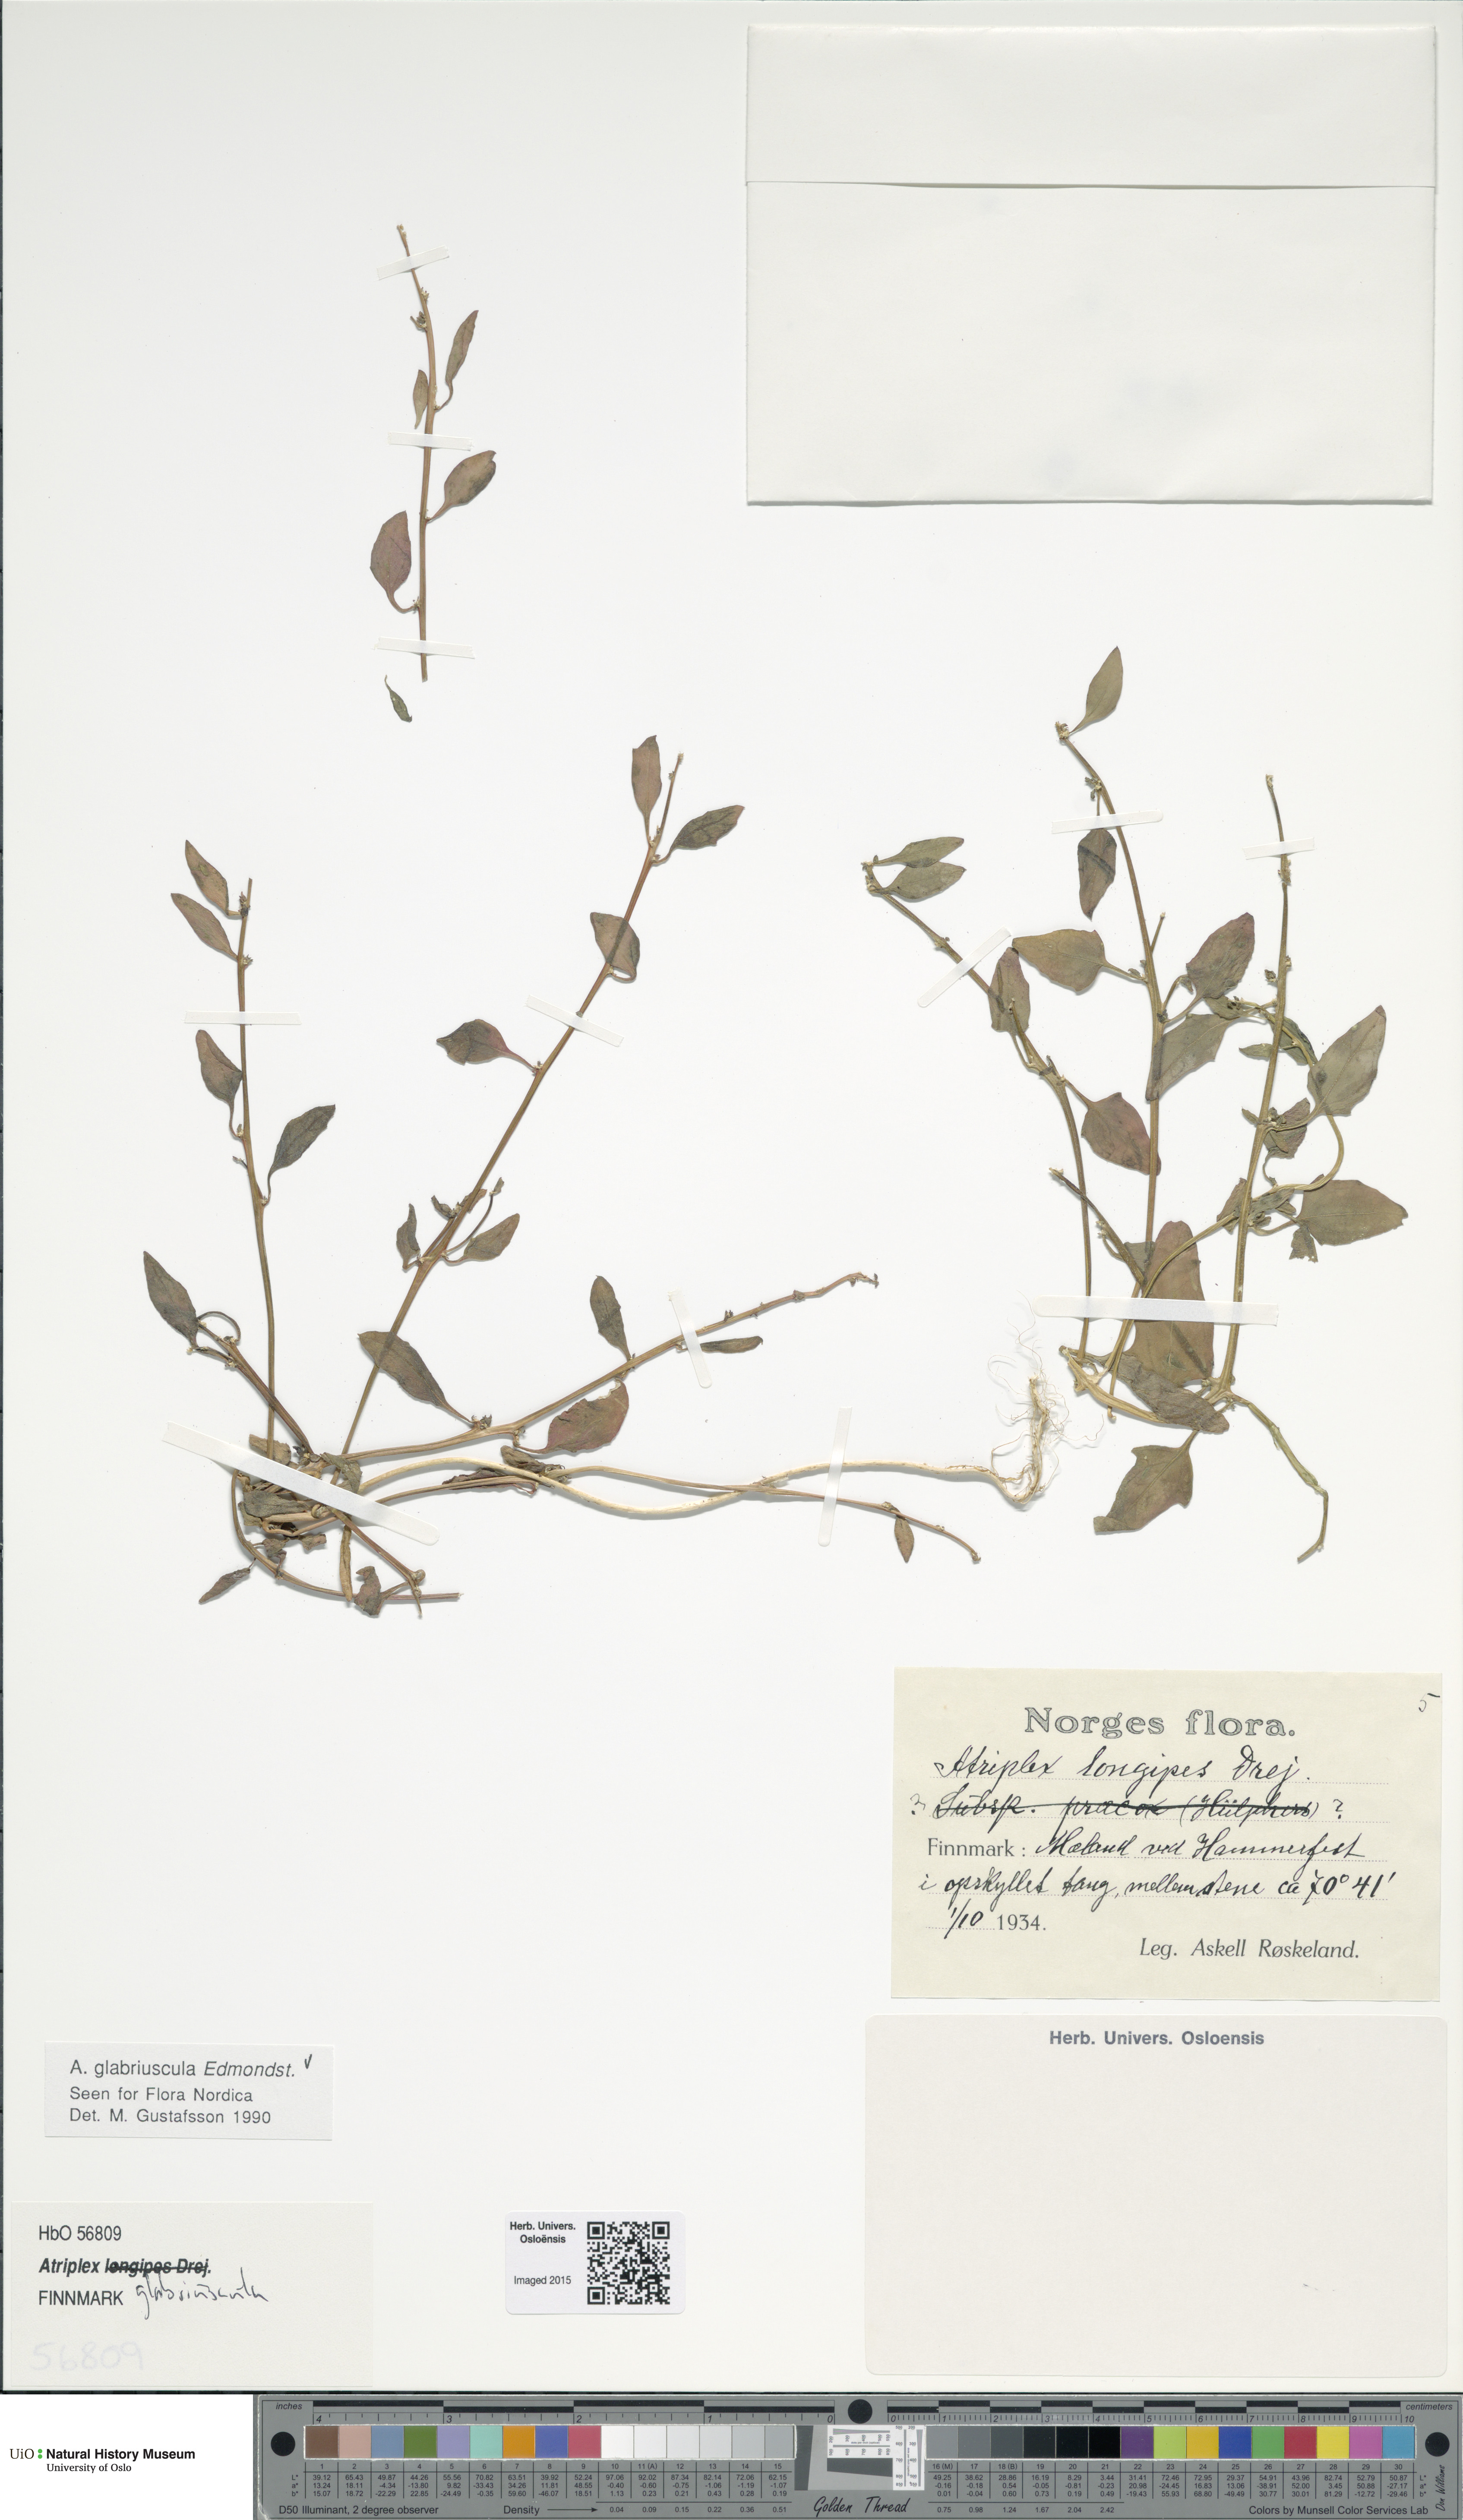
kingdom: Plantae
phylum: Tracheophyta
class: Magnoliopsida
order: Caryophyllales
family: Amaranthaceae
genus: Atriplex
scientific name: Atriplex glabriuscula
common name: Babington's orache
